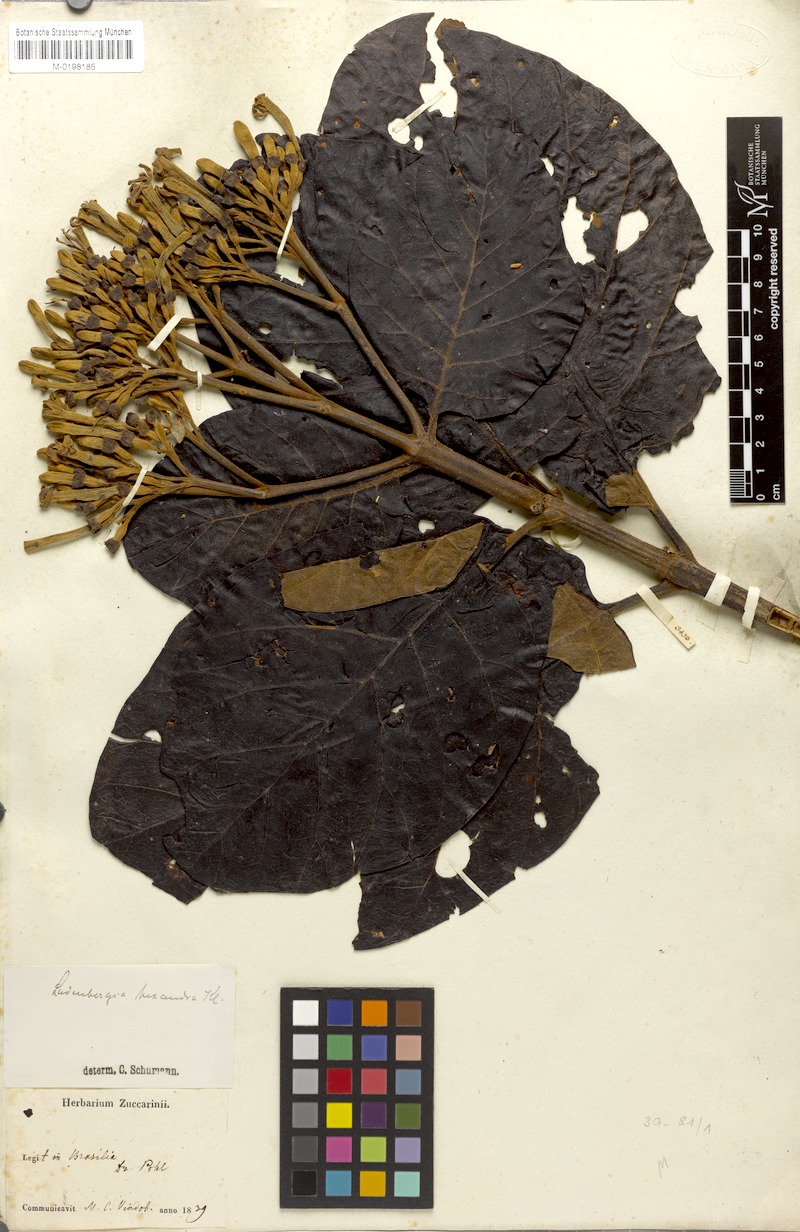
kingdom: Plantae
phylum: Tracheophyta
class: Magnoliopsida
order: Gentianales
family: Rubiaceae
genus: Ladenbergia
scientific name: Ladenbergia hexandra
